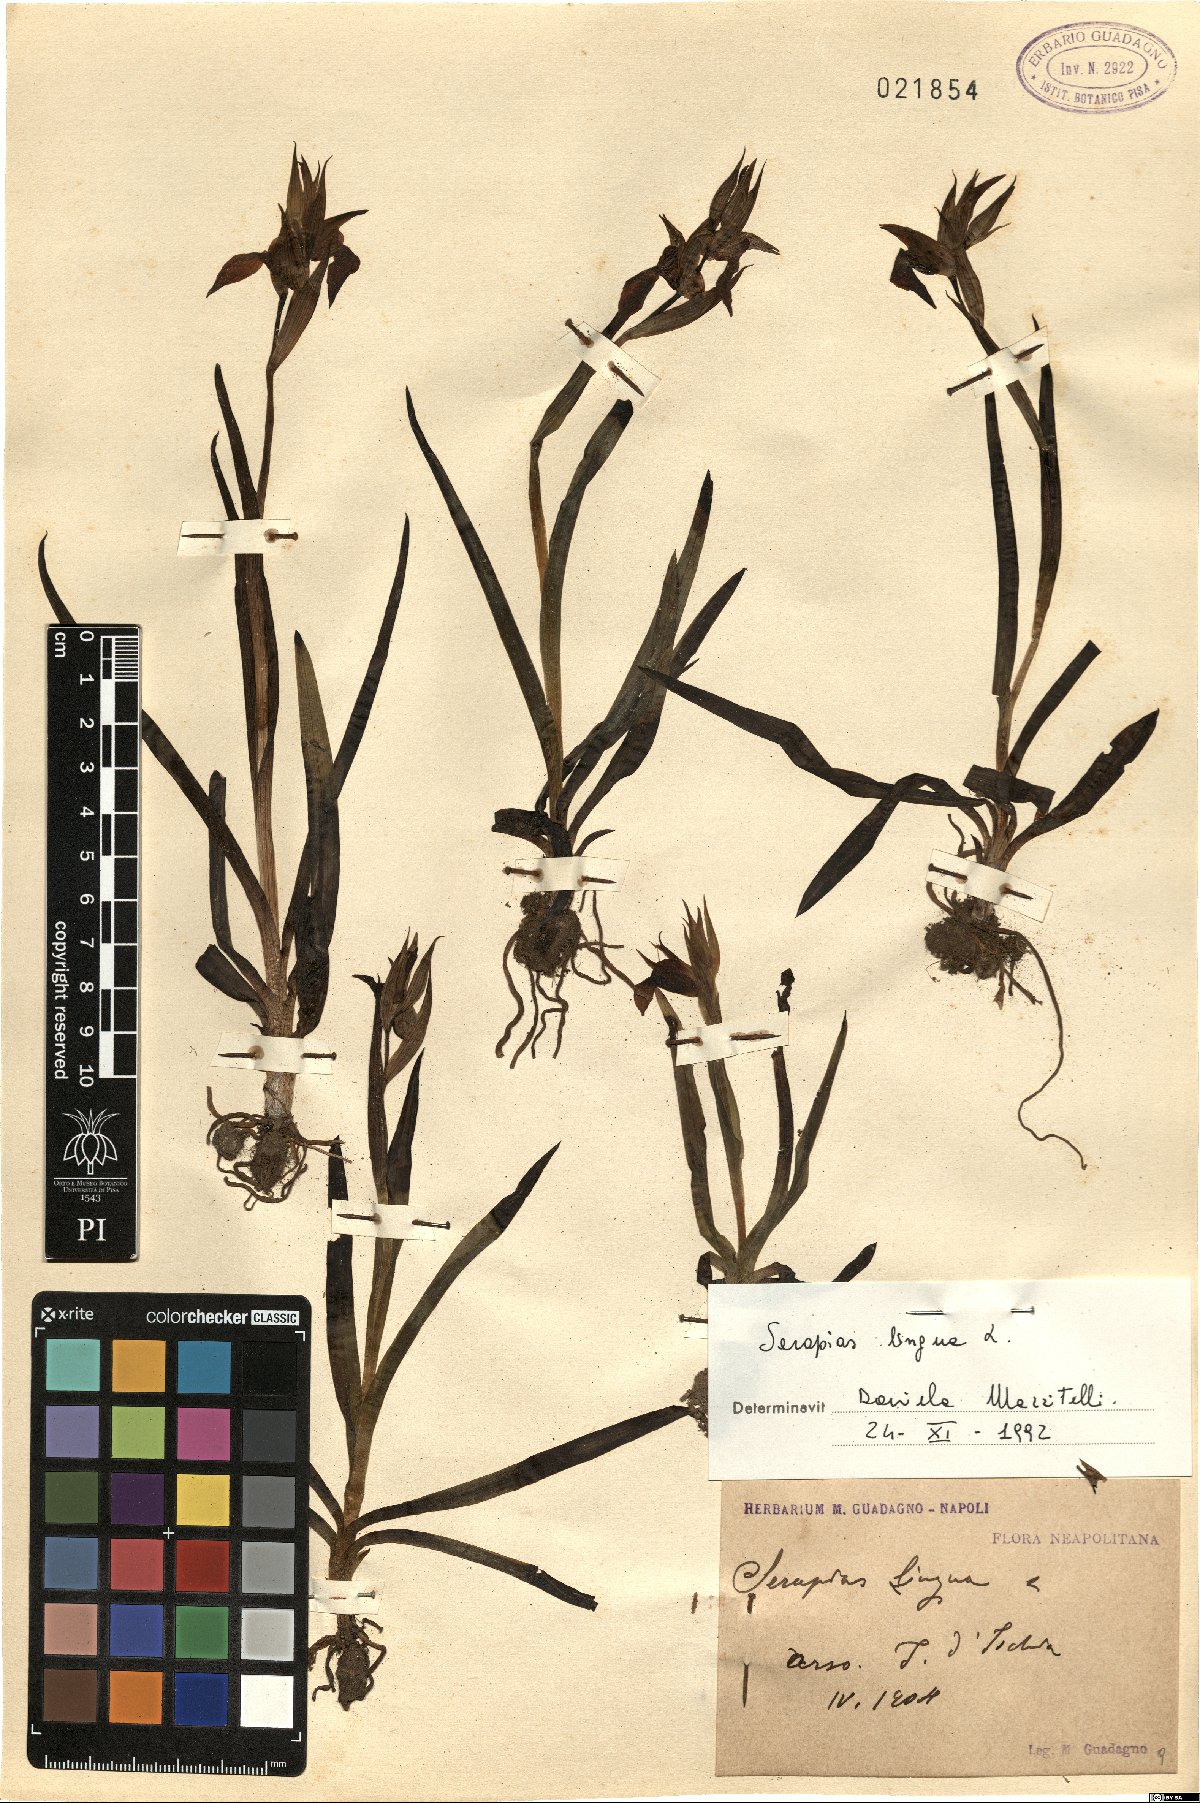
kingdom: Plantae
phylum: Tracheophyta
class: Liliopsida
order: Asparagales
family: Orchidaceae
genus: Serapias
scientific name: Serapias lingua
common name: Tongue-orchid
